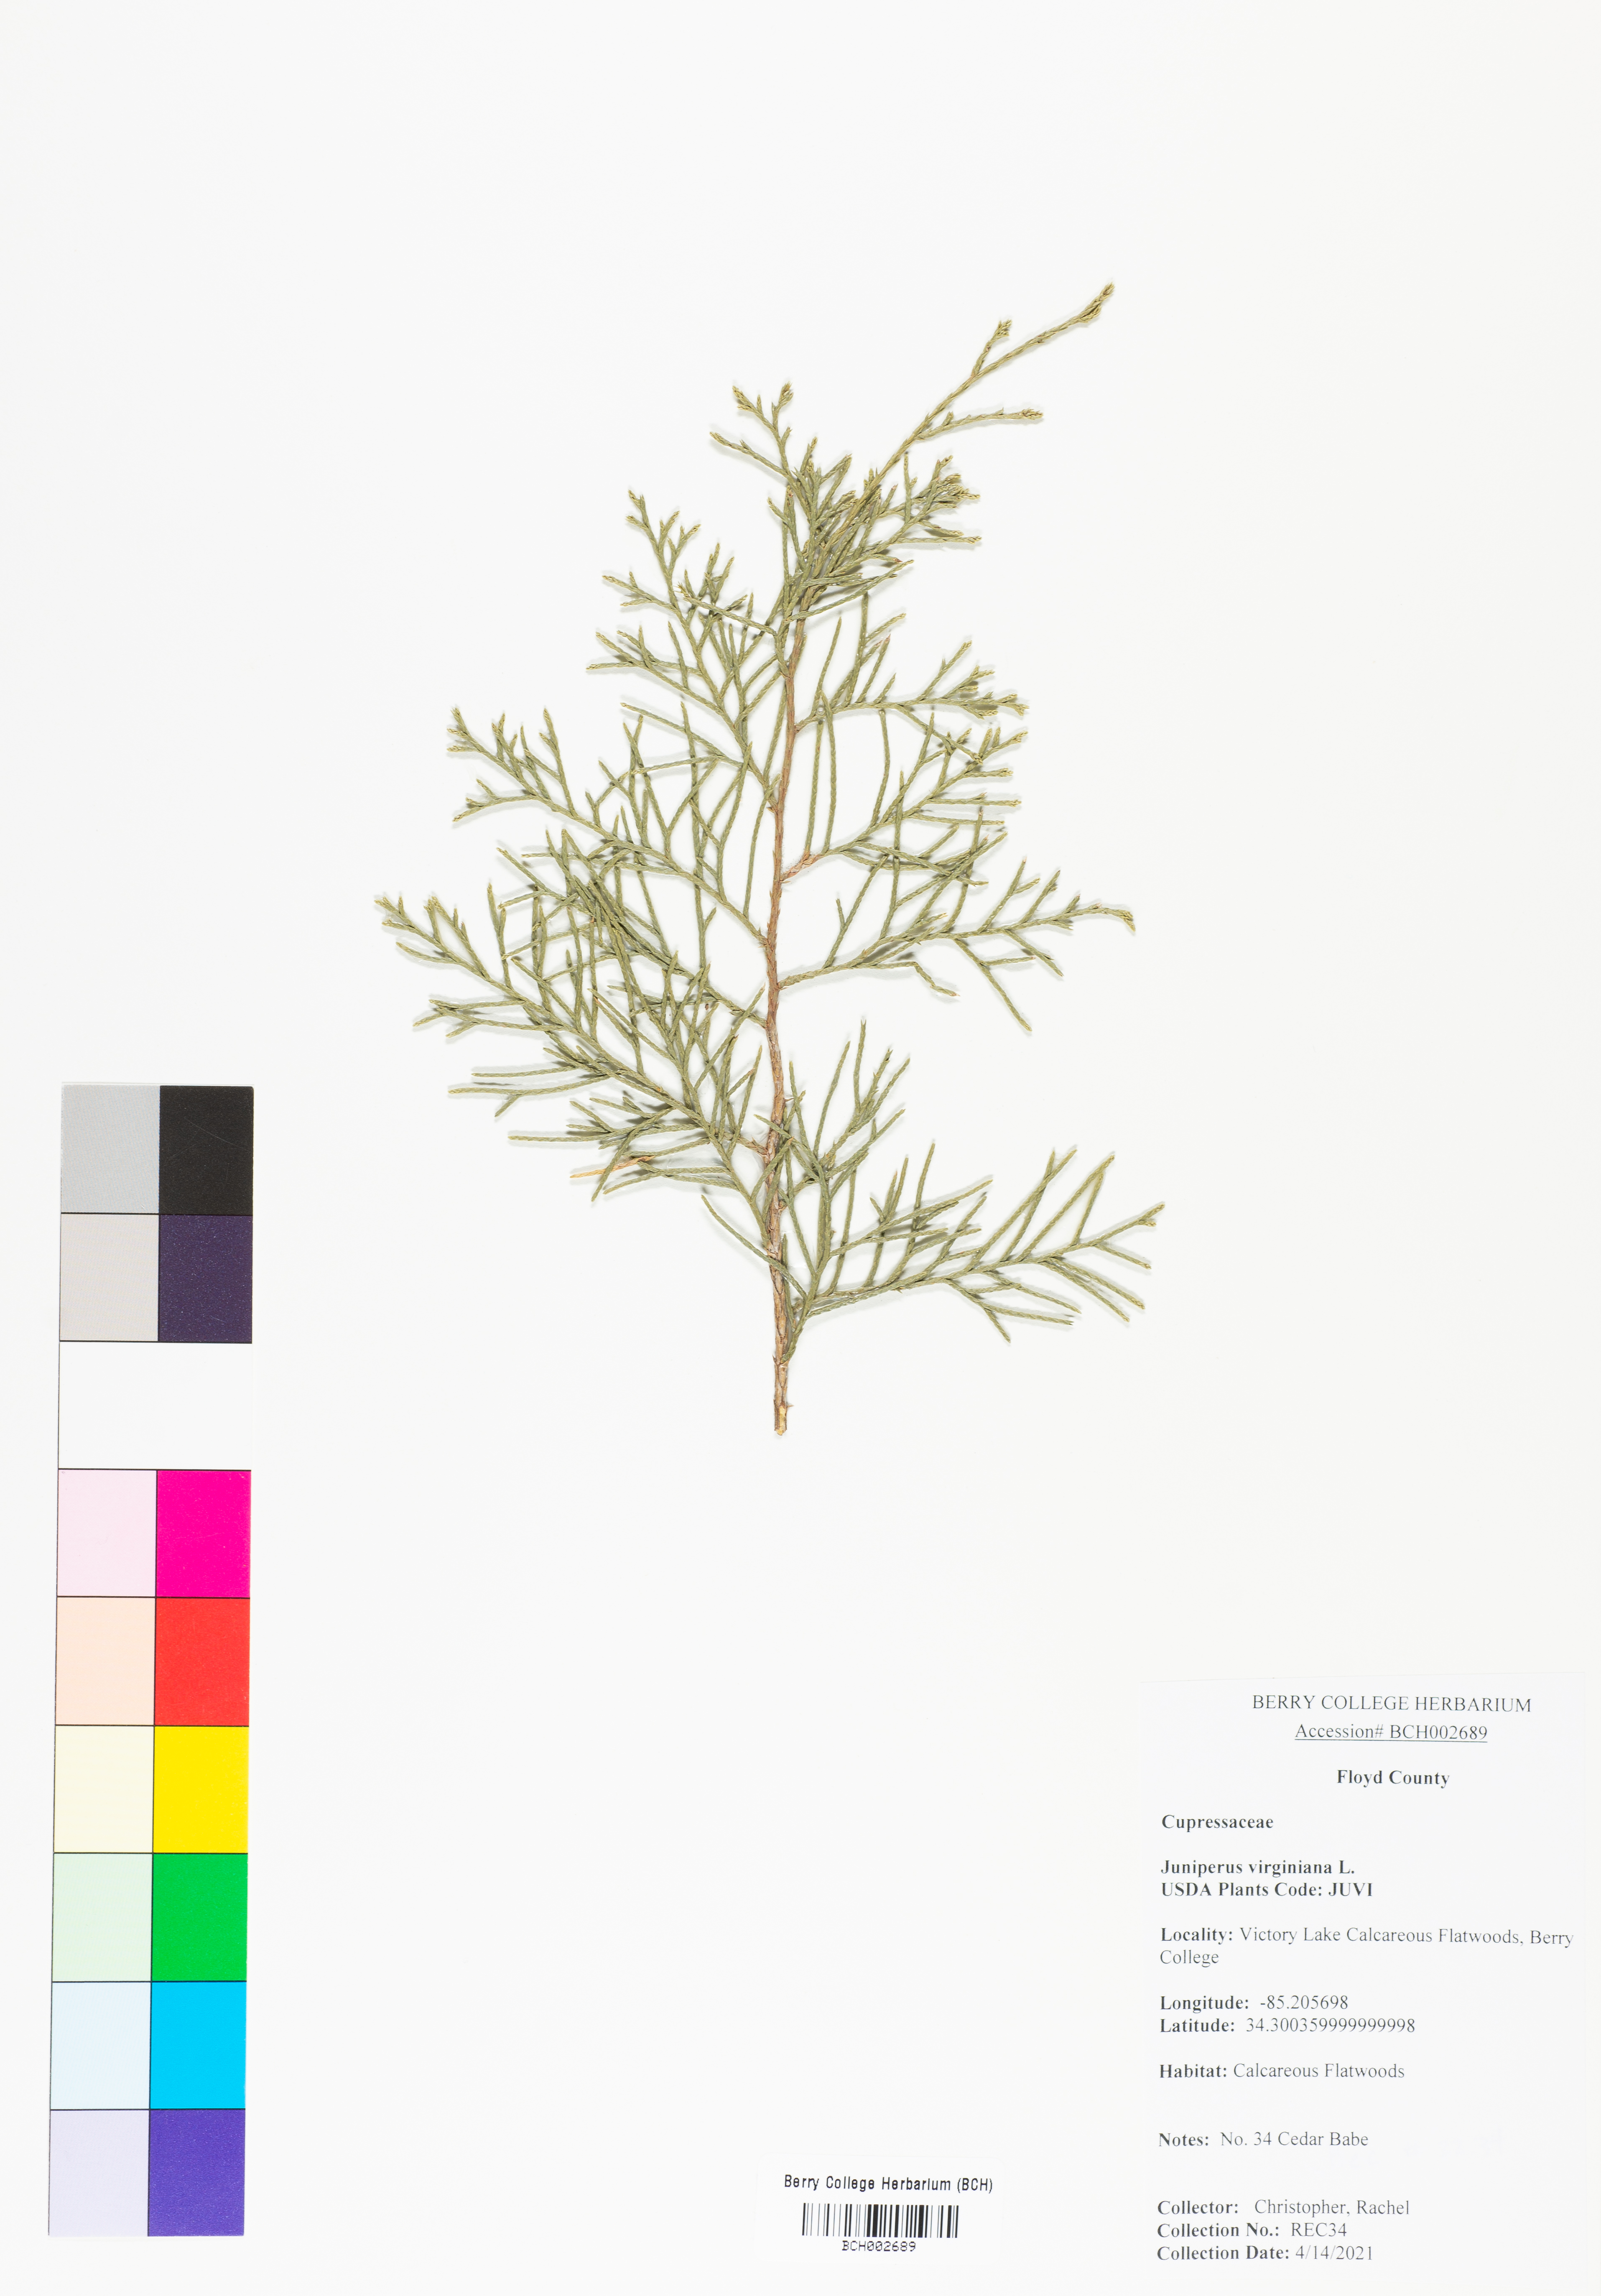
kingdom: Plantae
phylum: Tracheophyta
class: Pinopsida
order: Pinales
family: Cupressaceae
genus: Juniperus
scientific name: Juniperus virginiana
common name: Red juniper
